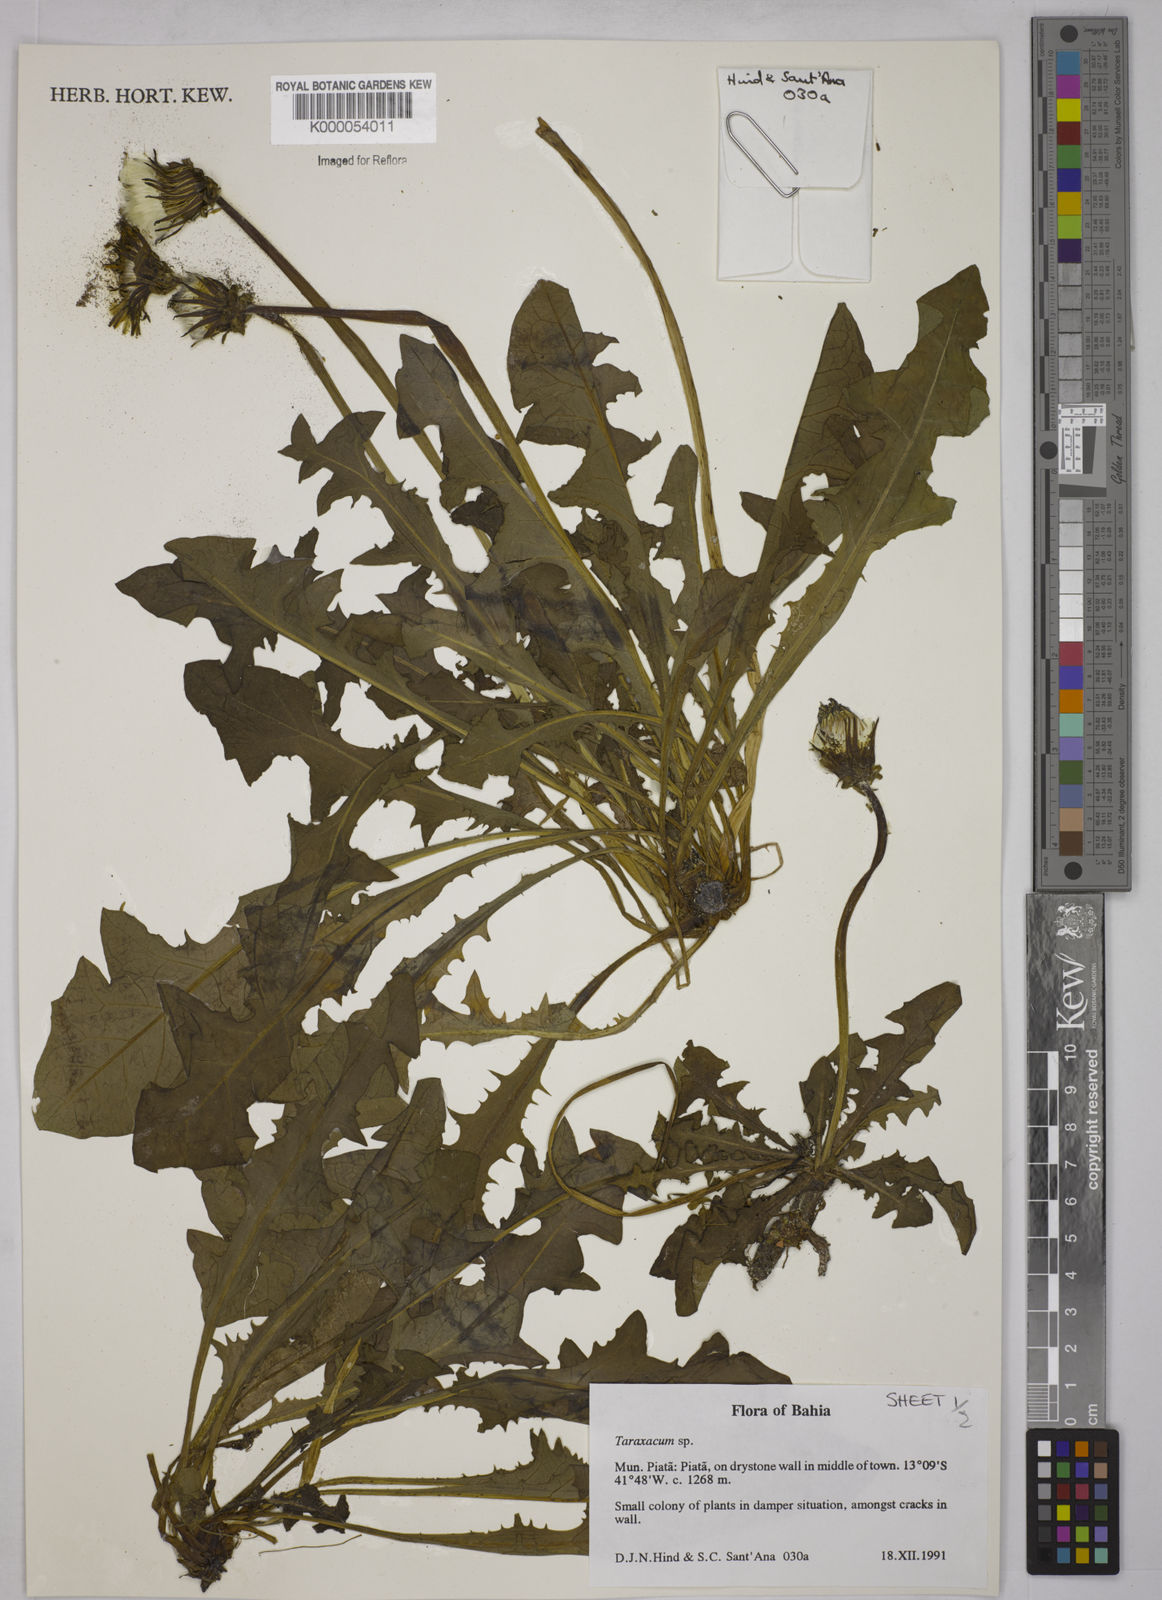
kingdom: Plantae
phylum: Tracheophyta
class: Magnoliopsida
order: Asterales
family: Asteraceae
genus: Taraxacum
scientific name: Taraxacum
